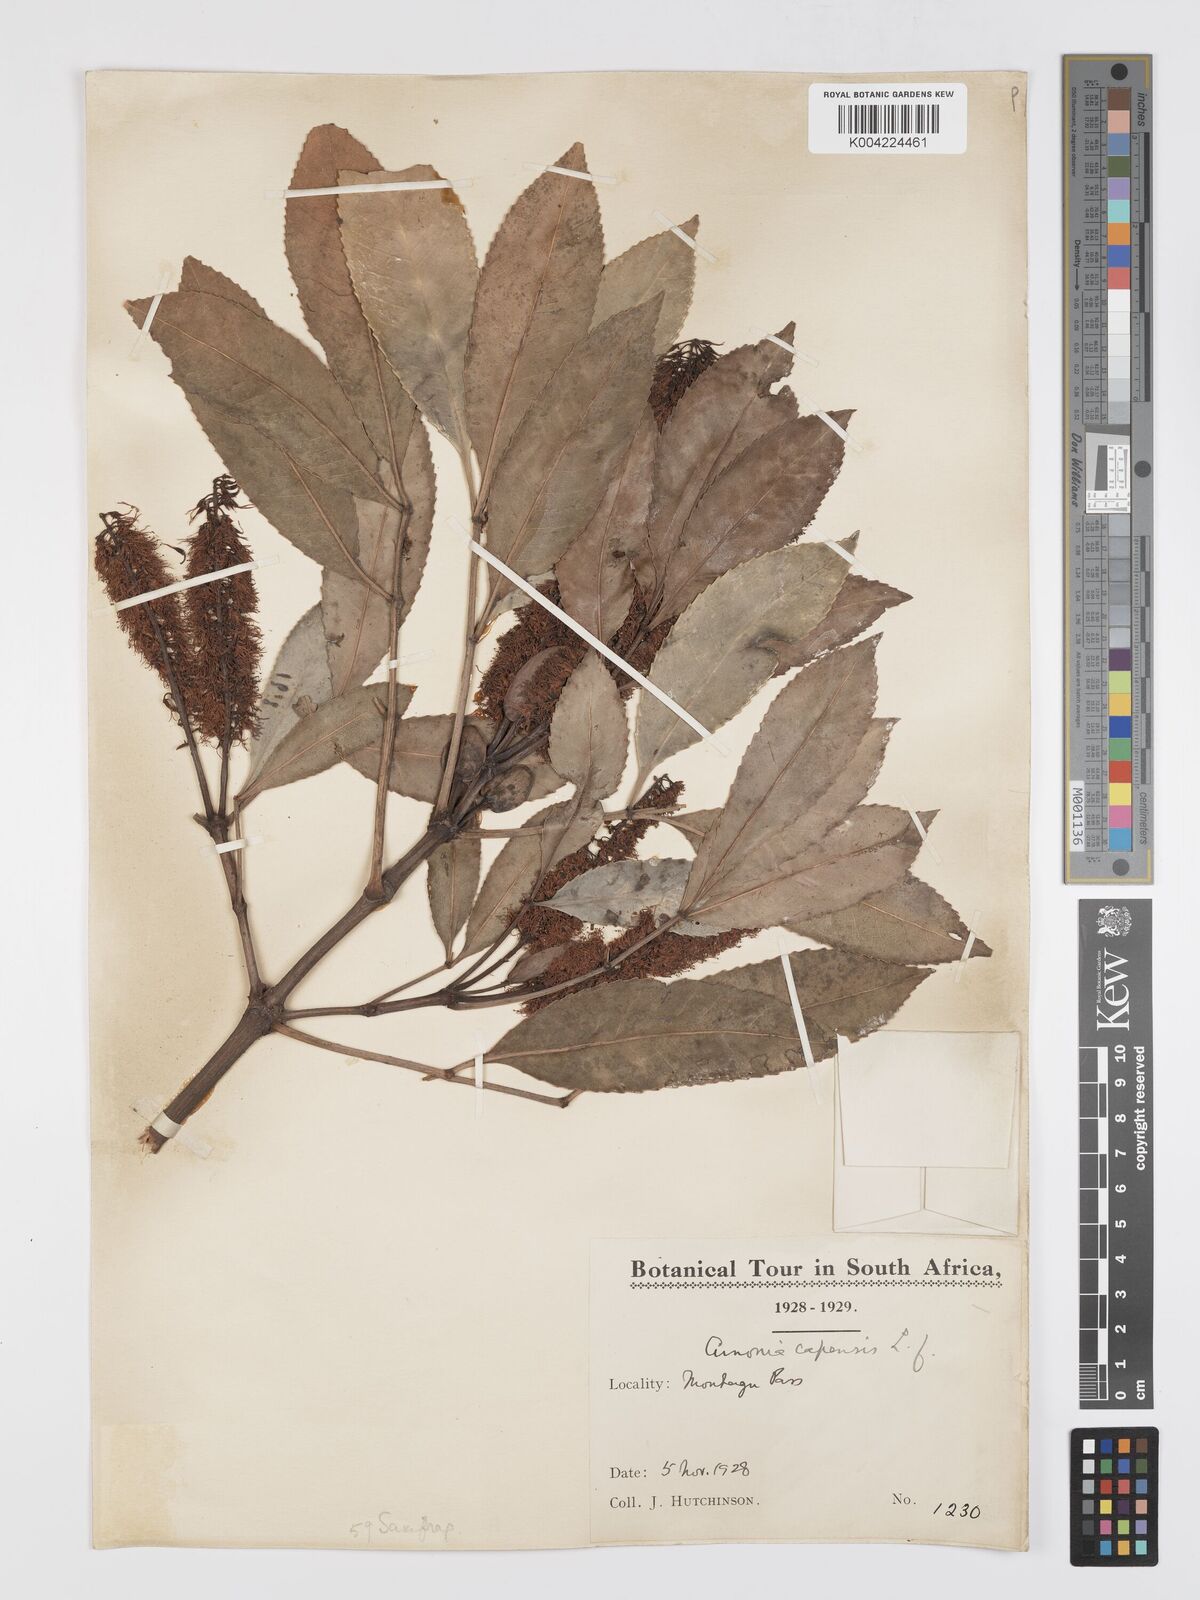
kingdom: Plantae
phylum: Tracheophyta
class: Magnoliopsida
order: Oxalidales
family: Cunoniaceae
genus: Cunonia
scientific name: Cunonia capensis
